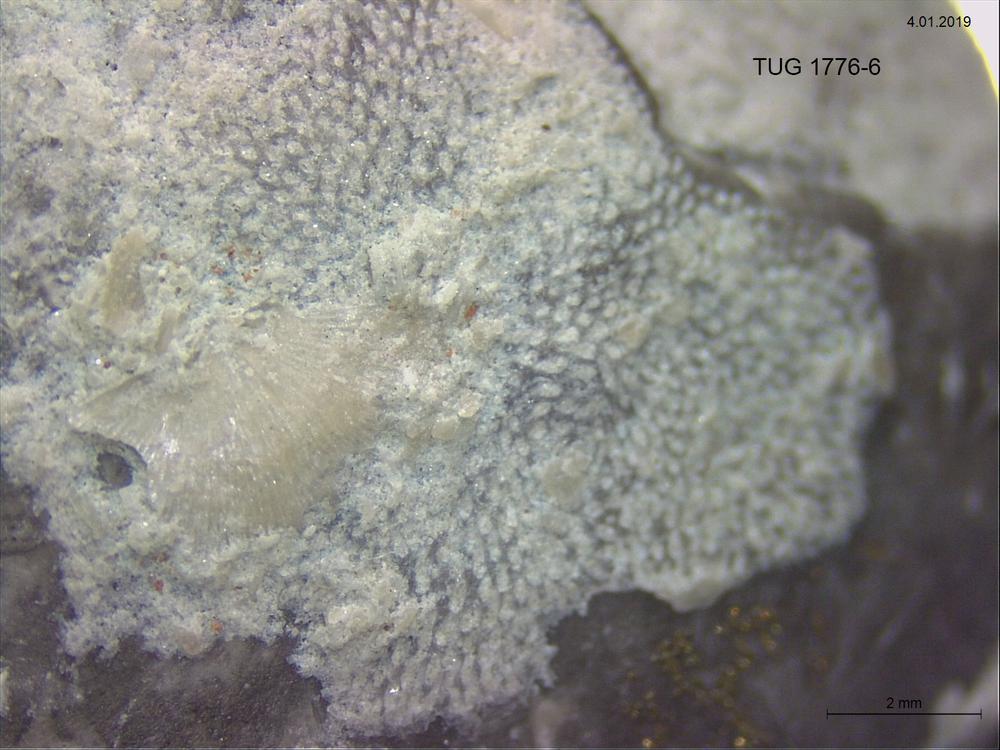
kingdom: Animalia
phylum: Bryozoa
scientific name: Bryozoa
